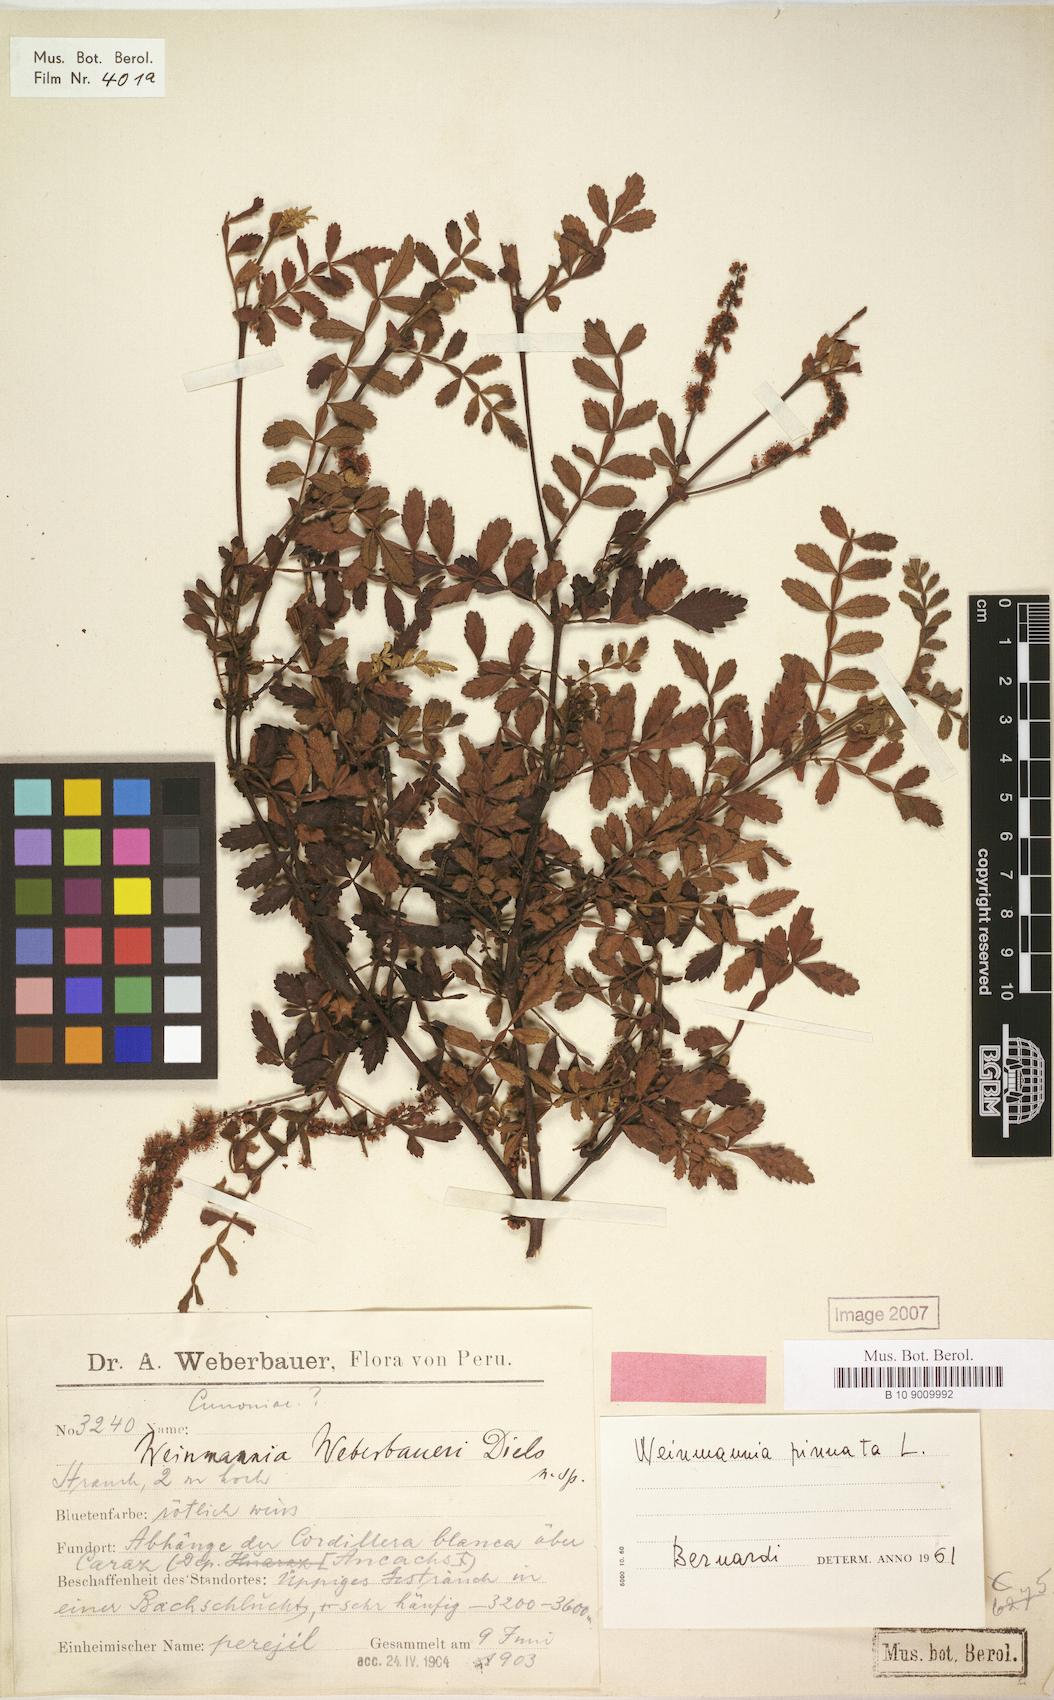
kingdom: Plantae
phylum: Tracheophyta
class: Magnoliopsida
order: Oxalidales
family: Cunoniaceae
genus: Weinmannia
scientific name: Weinmannia pinnata
